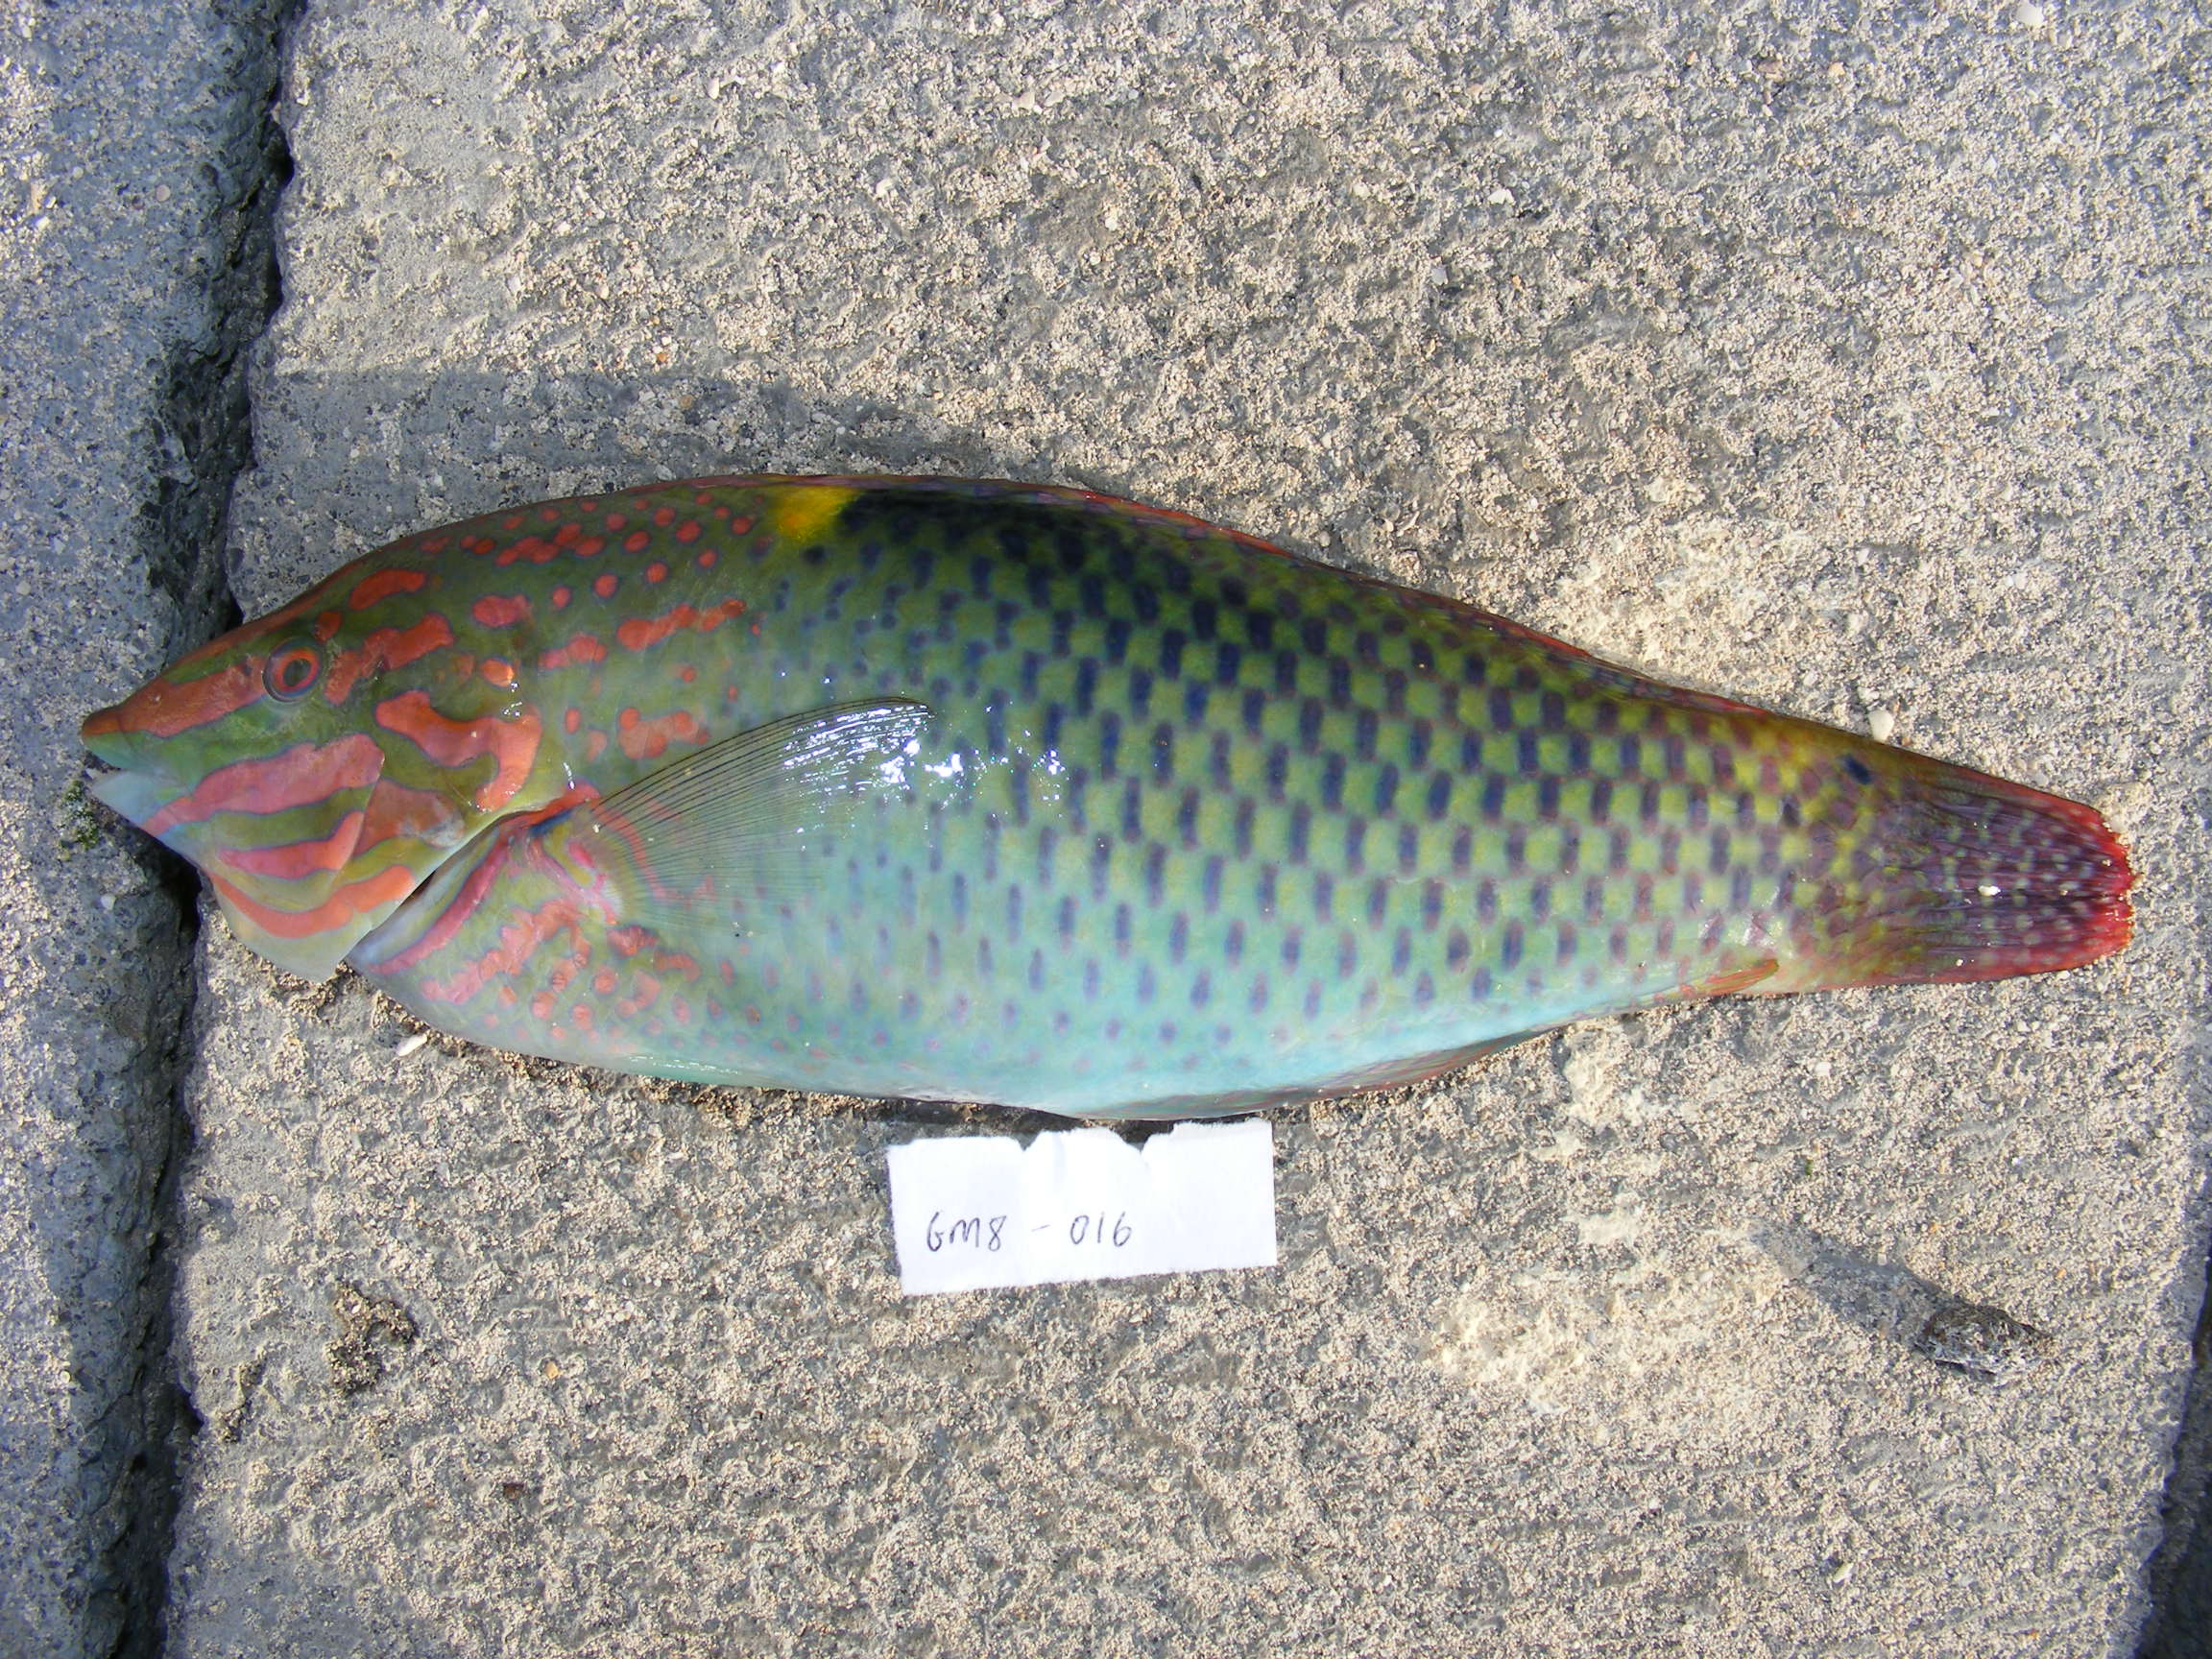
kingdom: Animalia
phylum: Chordata
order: Perciformes
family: Labridae
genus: Halichoeres
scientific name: Halichoeres hortulanus
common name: Checkerboard wrasse
